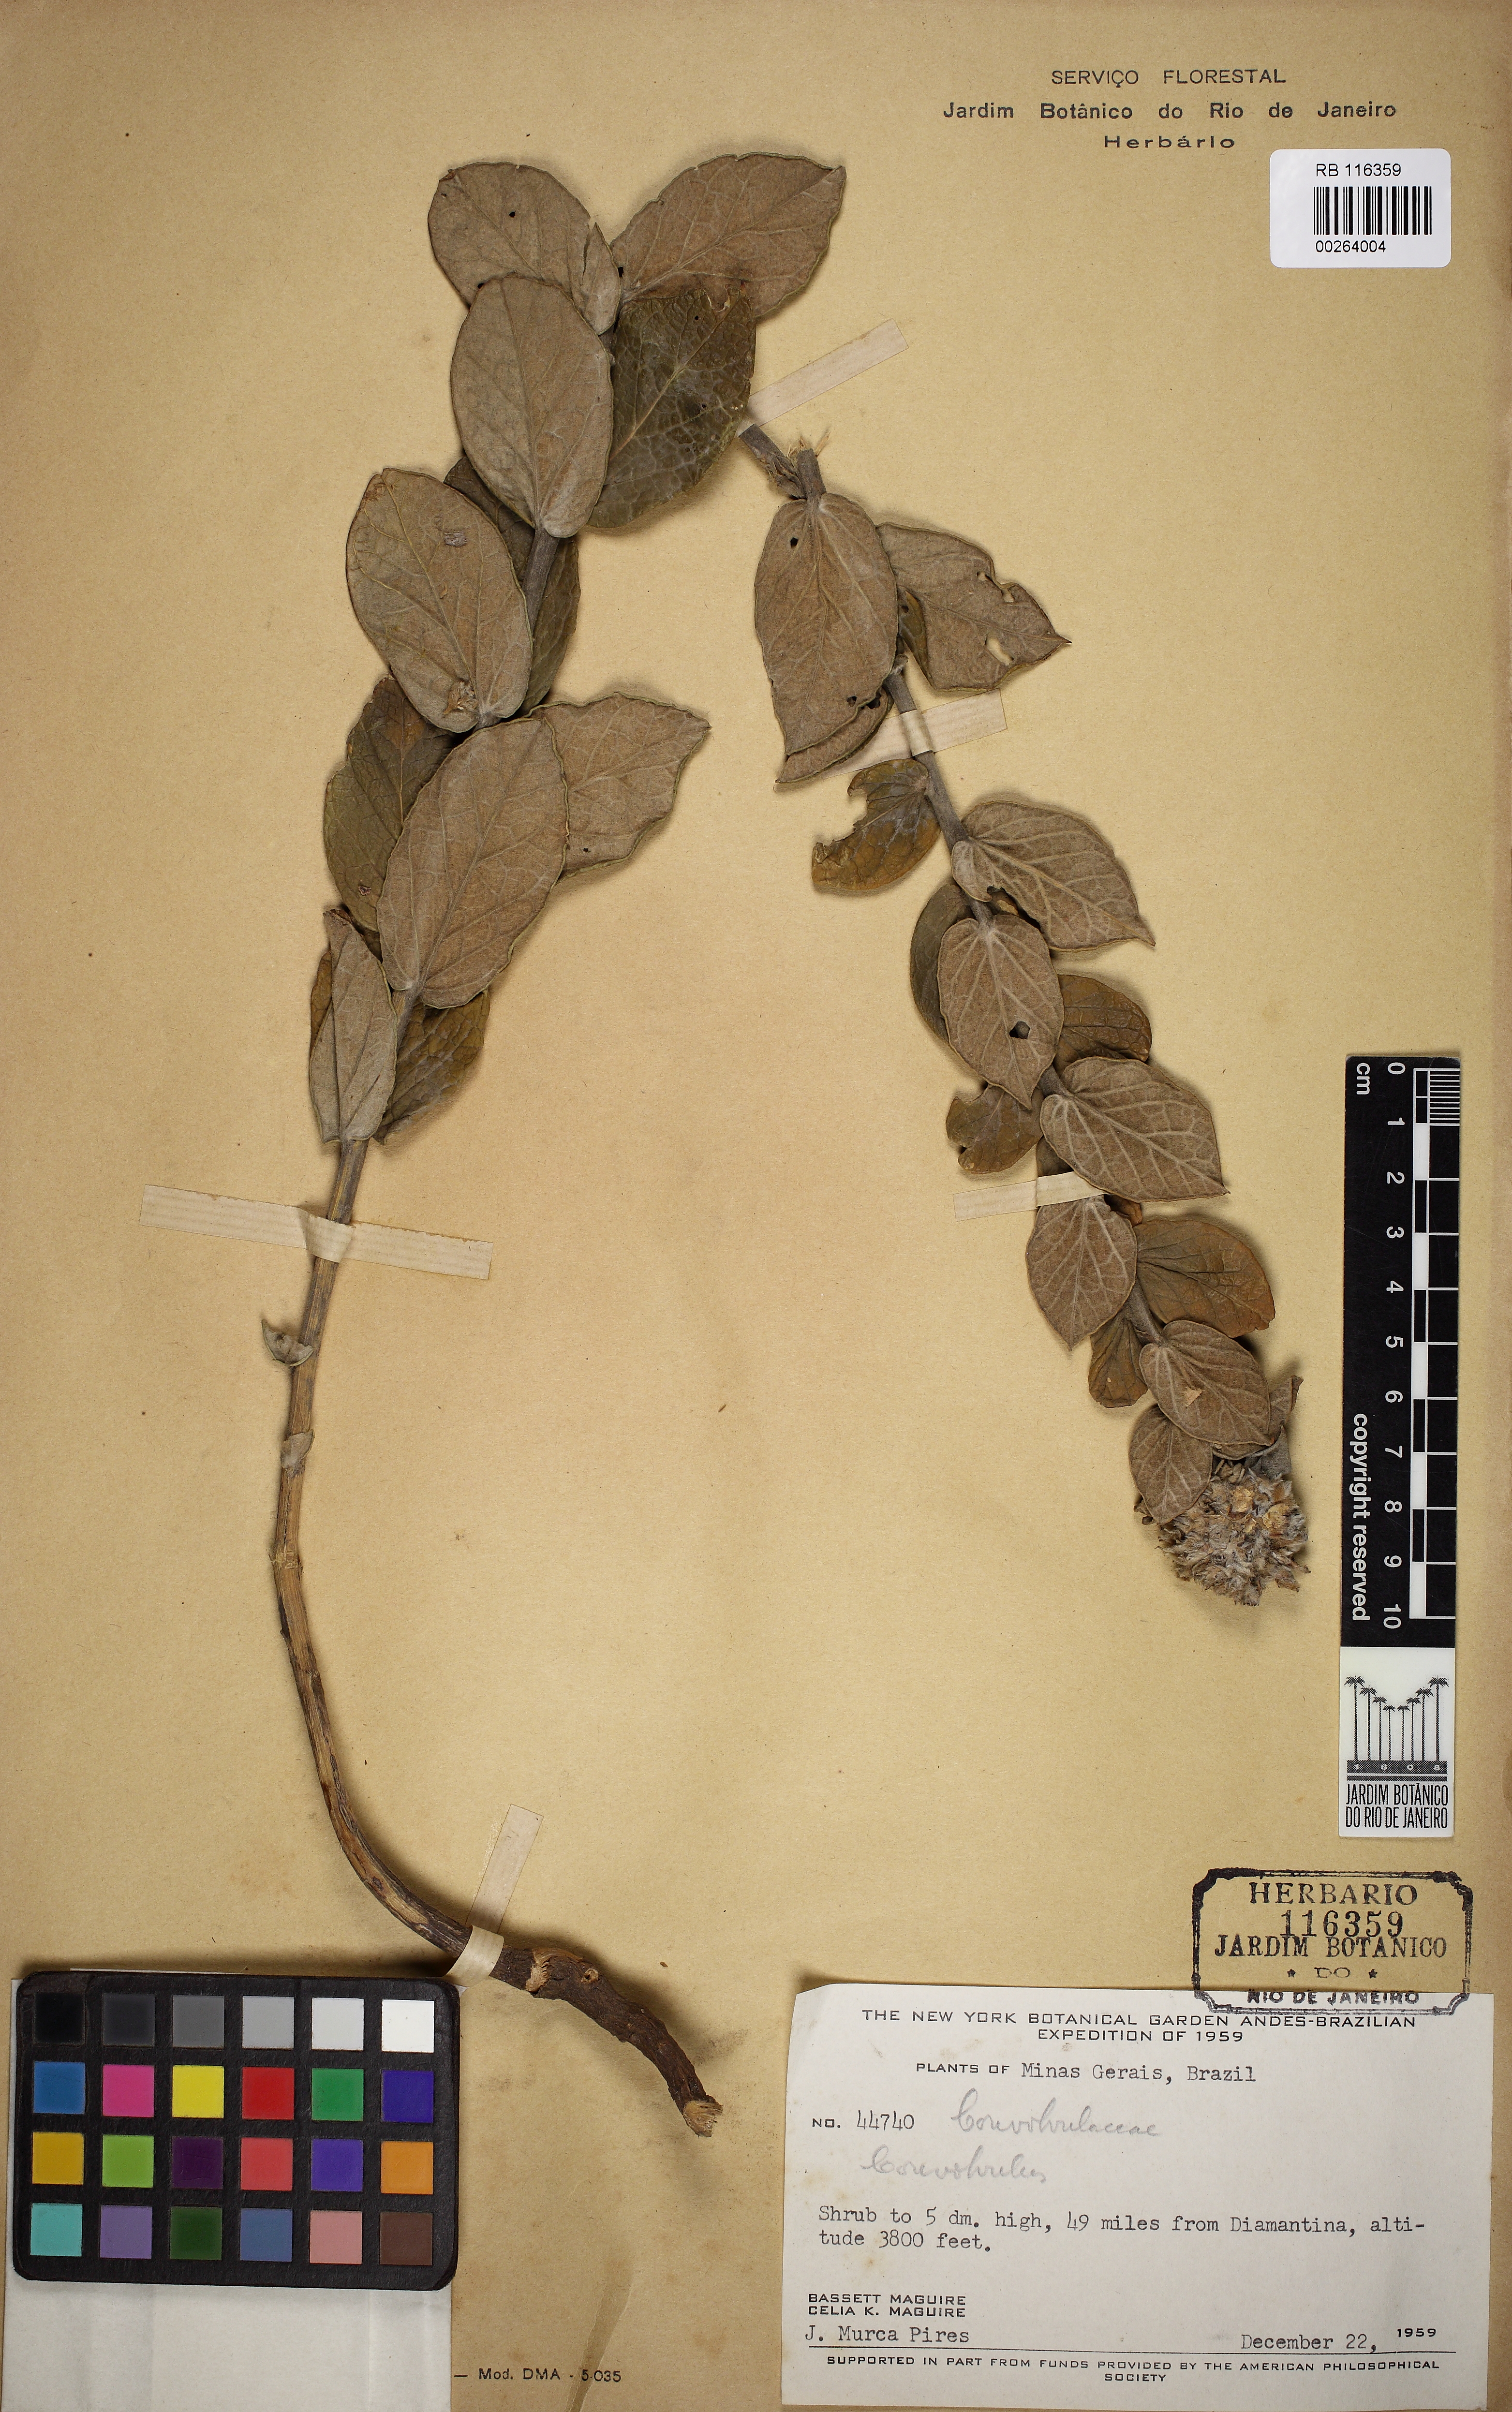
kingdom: Plantae
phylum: Tracheophyta
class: Magnoliopsida
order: Solanales
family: Convolvulaceae
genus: Bonamia
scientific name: Bonamia sphaerocephala
